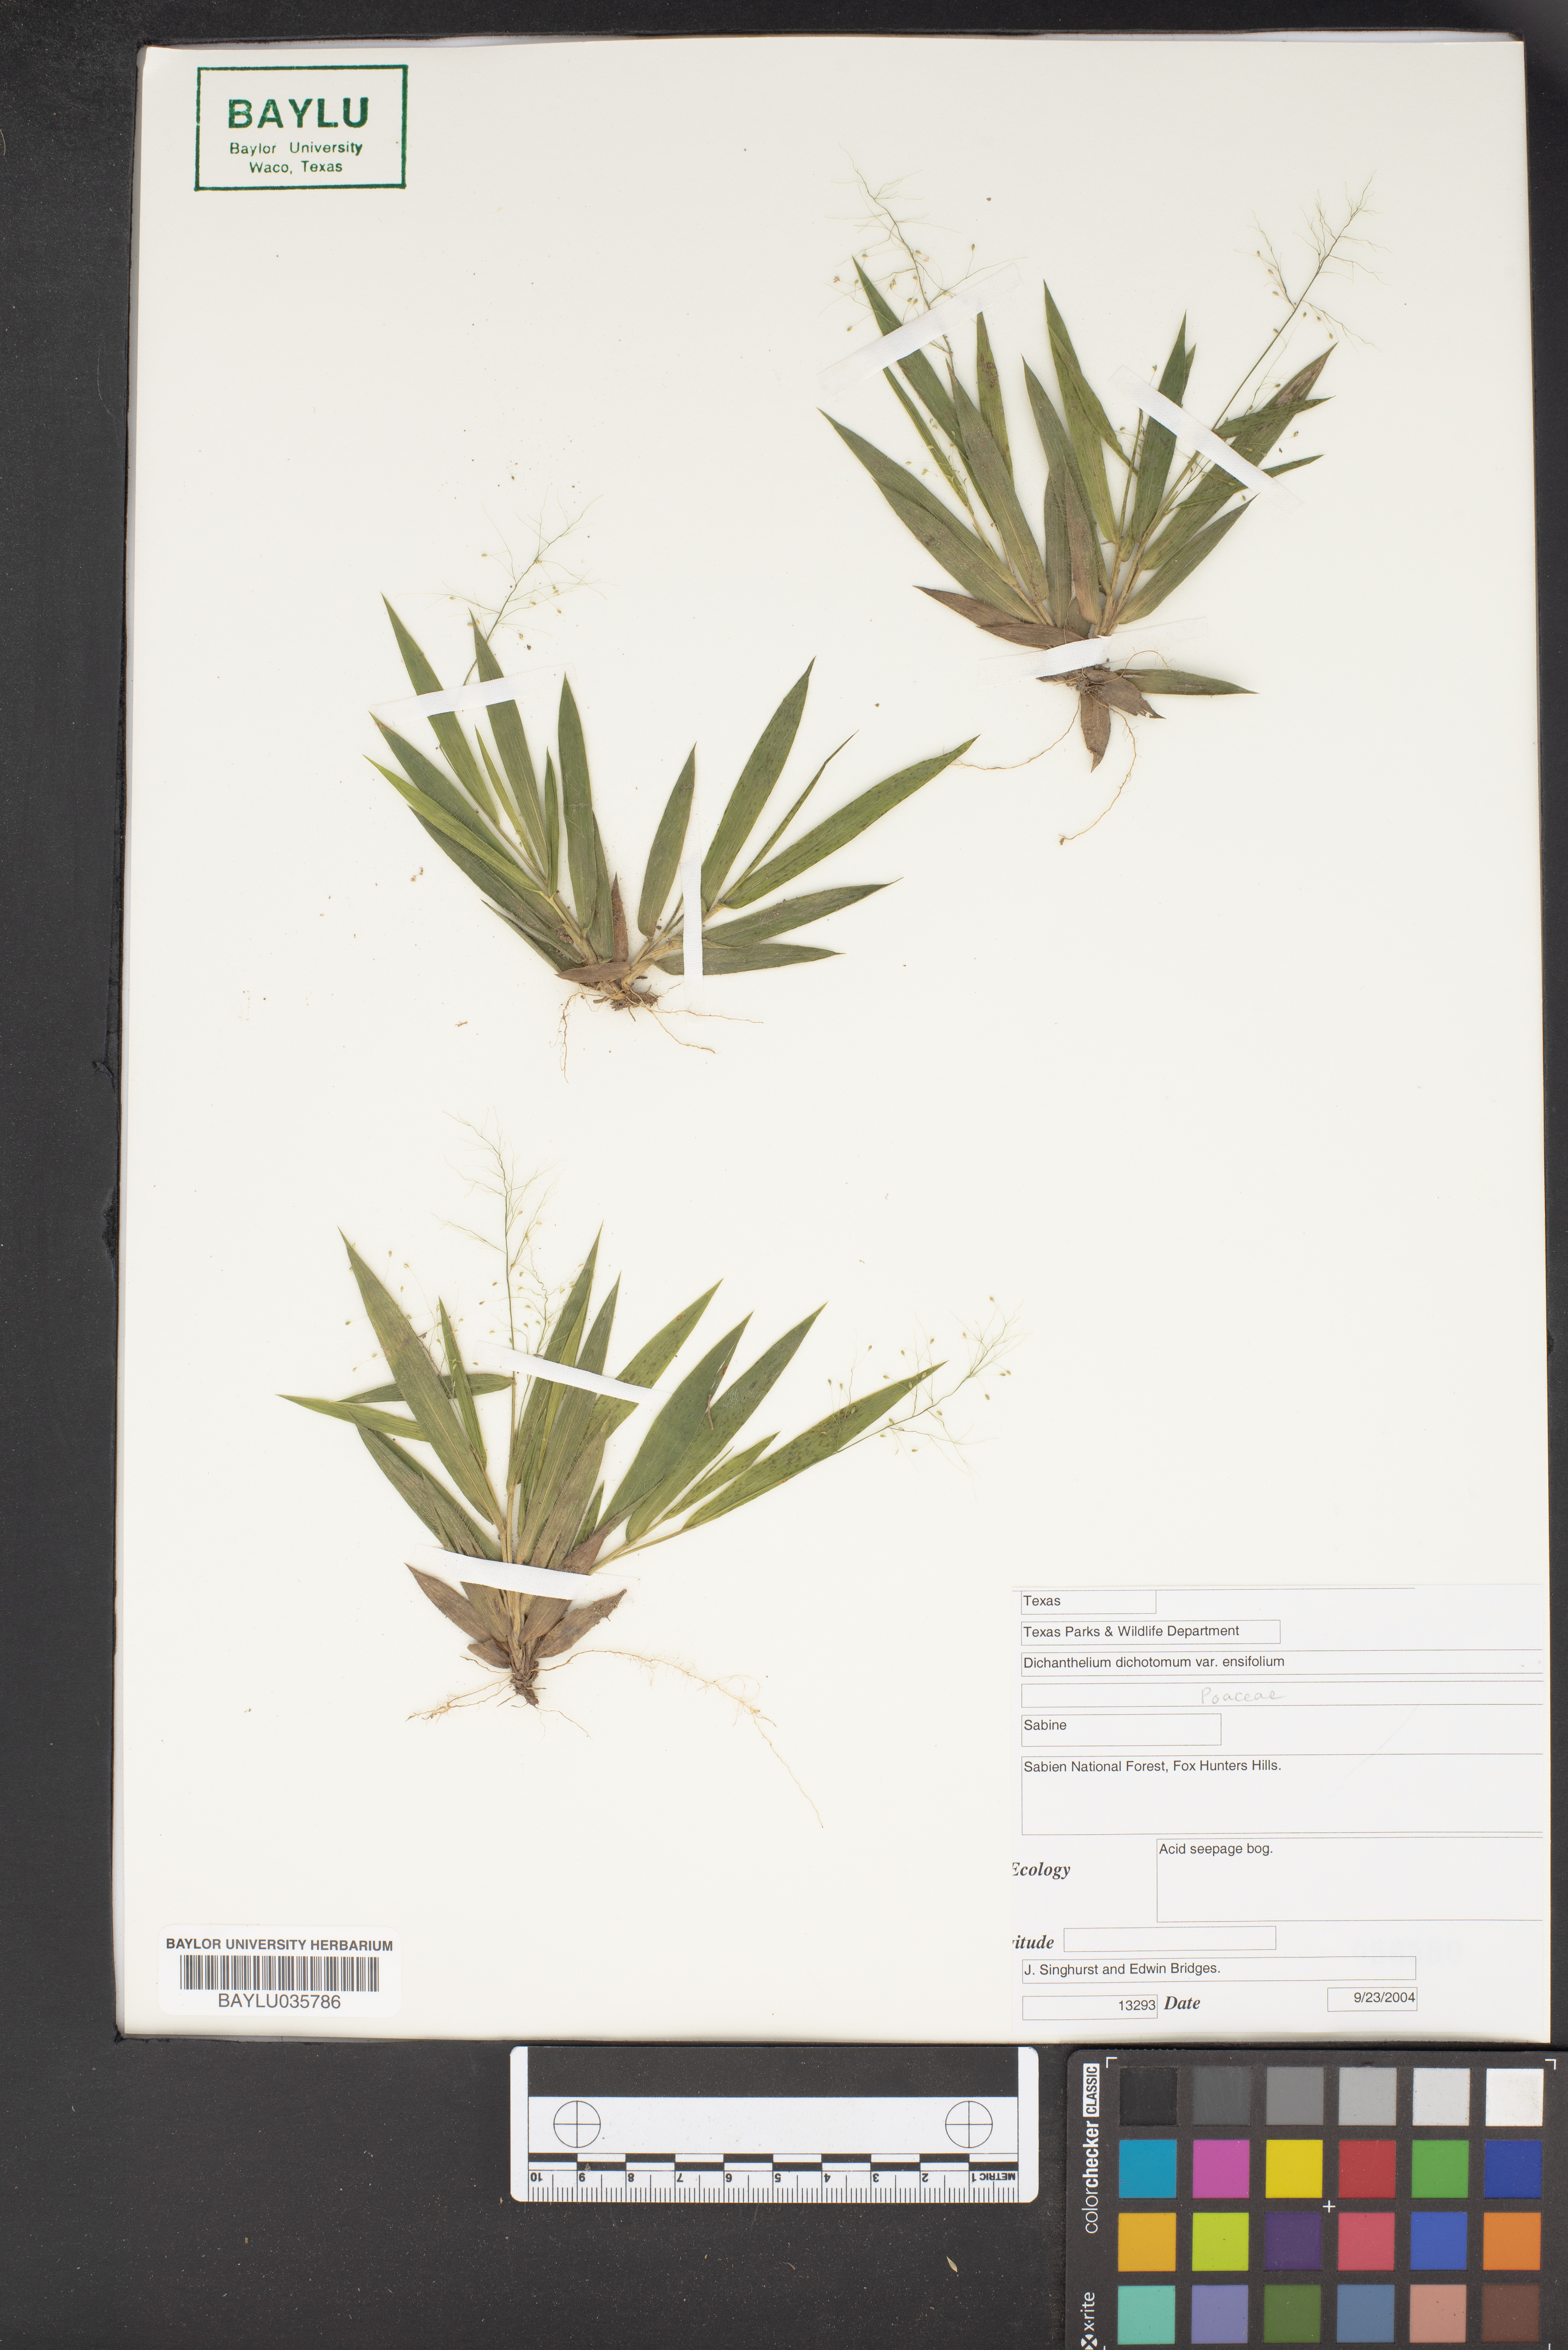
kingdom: Plantae
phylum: Tracheophyta
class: Liliopsida
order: Poales
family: Poaceae
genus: Dichanthelium
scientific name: Dichanthelium ensifolium
